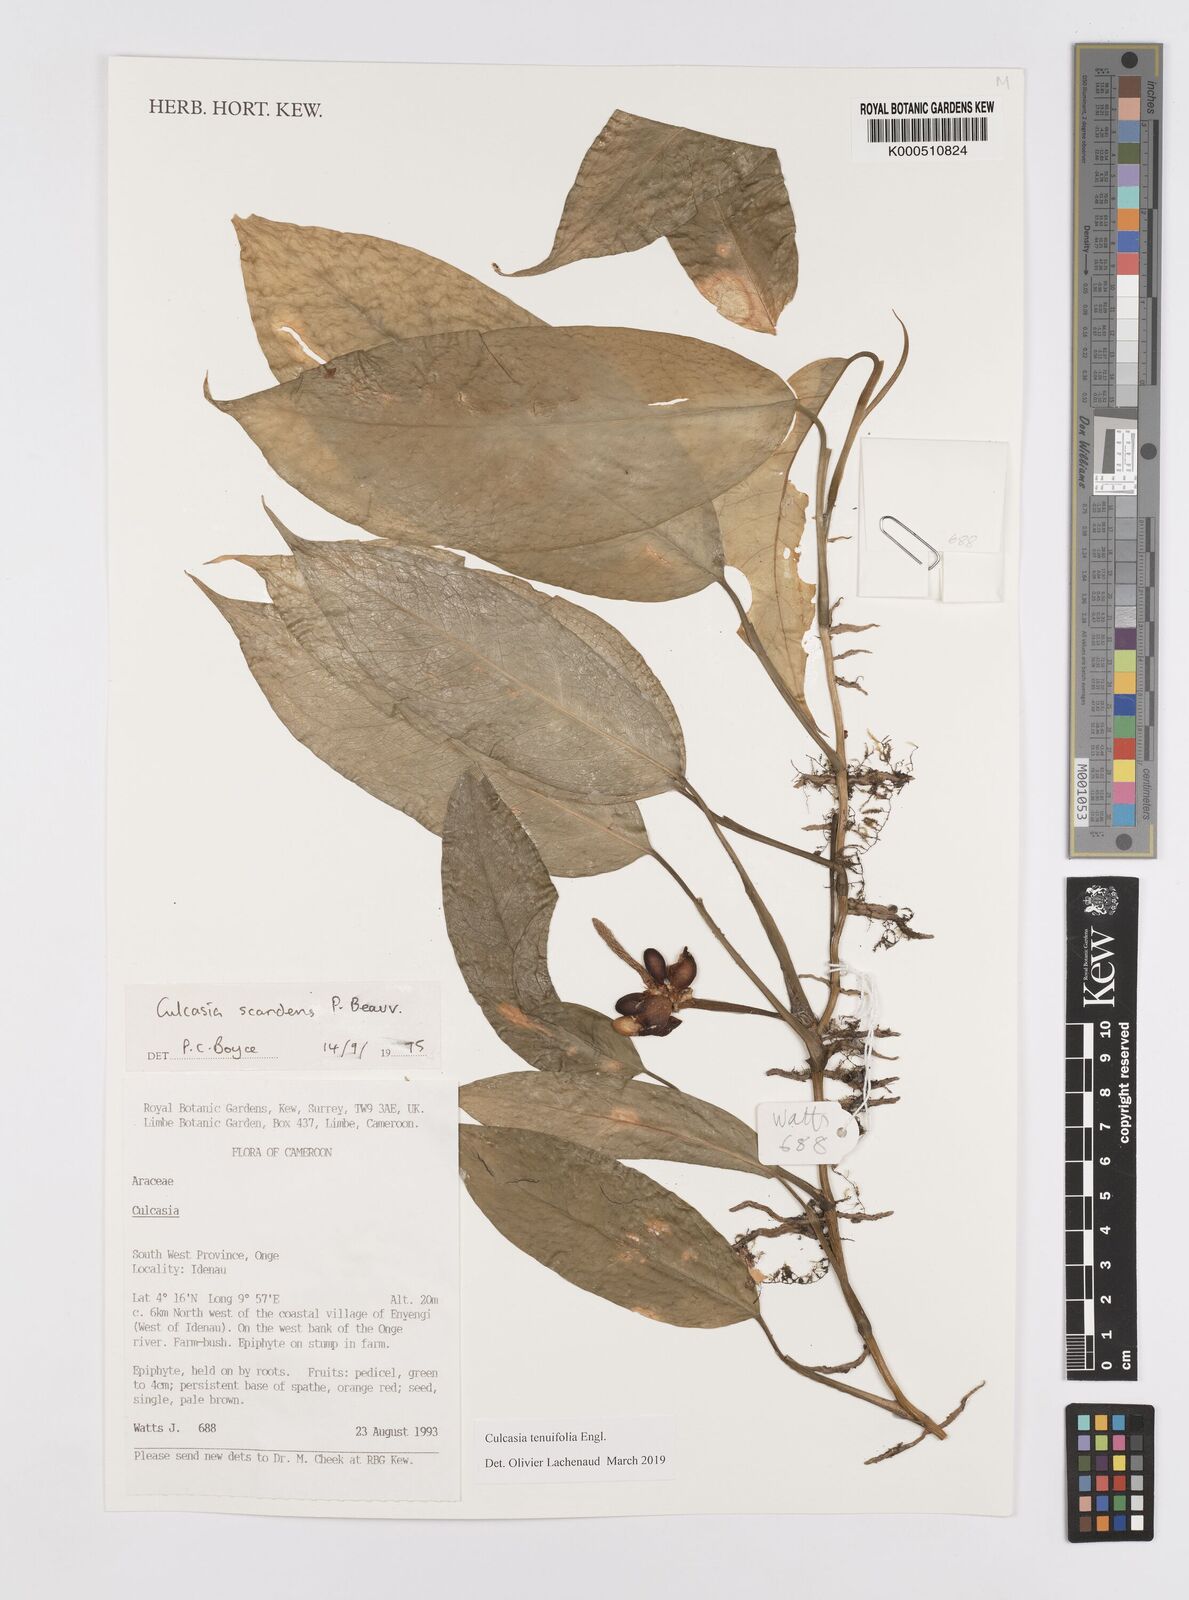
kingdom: Plantae
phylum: Tracheophyta
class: Liliopsida
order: Alismatales
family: Araceae
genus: Culcasia
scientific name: Culcasia tenuifolia
